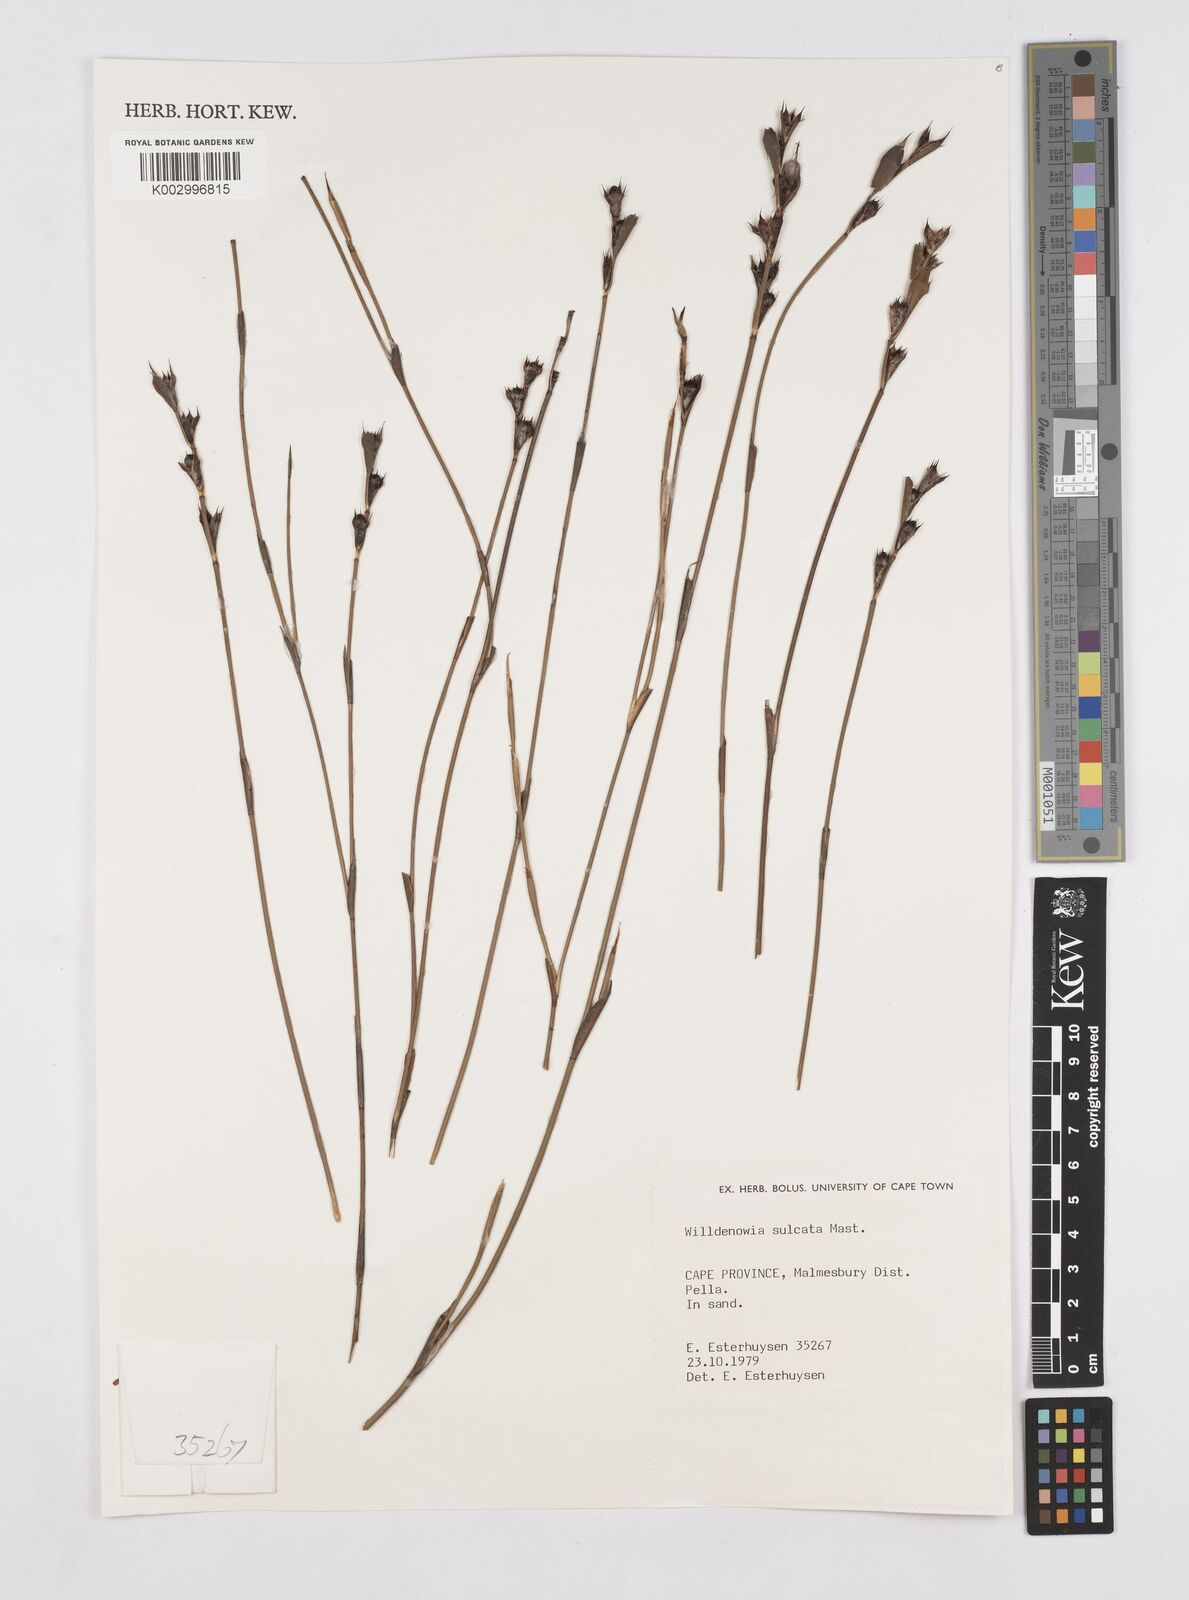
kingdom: Plantae
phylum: Tracheophyta
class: Liliopsida
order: Poales
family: Restionaceae
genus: Willdenowia
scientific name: Willdenowia sulcata
